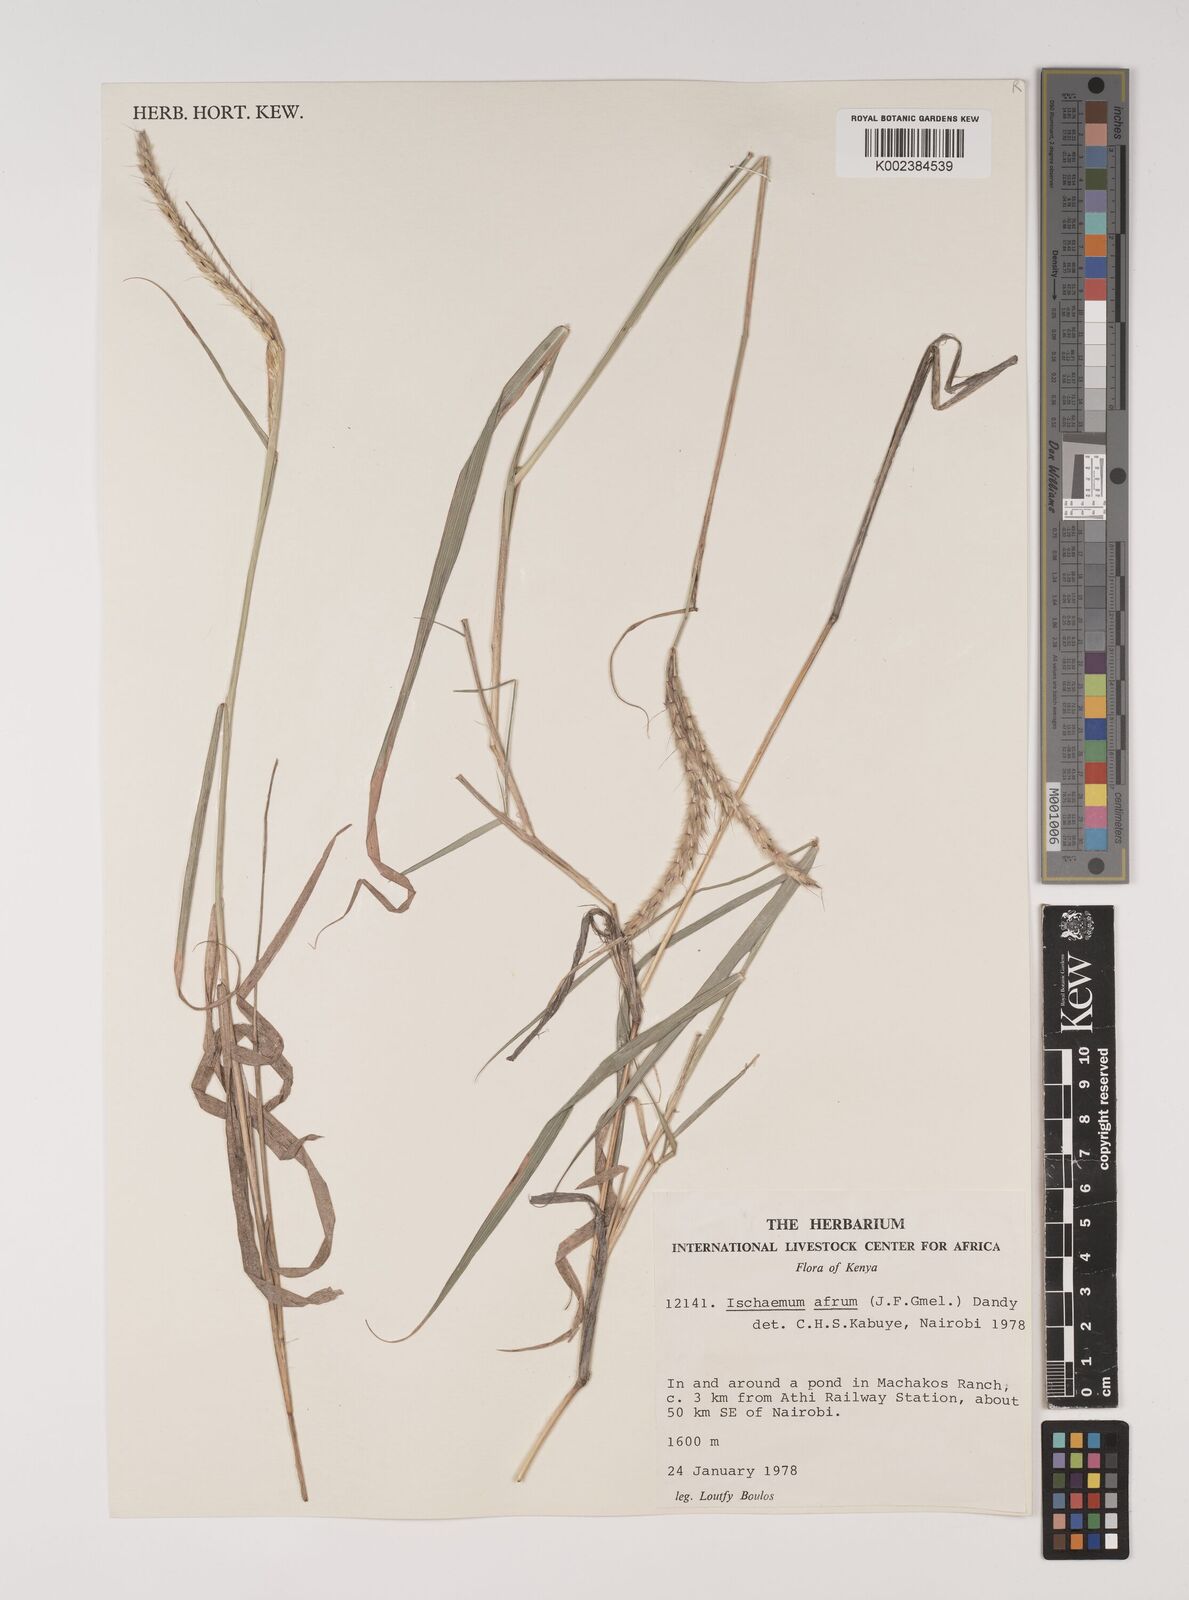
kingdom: Plantae
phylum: Tracheophyta
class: Liliopsida
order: Poales
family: Poaceae
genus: Ischaemum
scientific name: Ischaemum afrum
